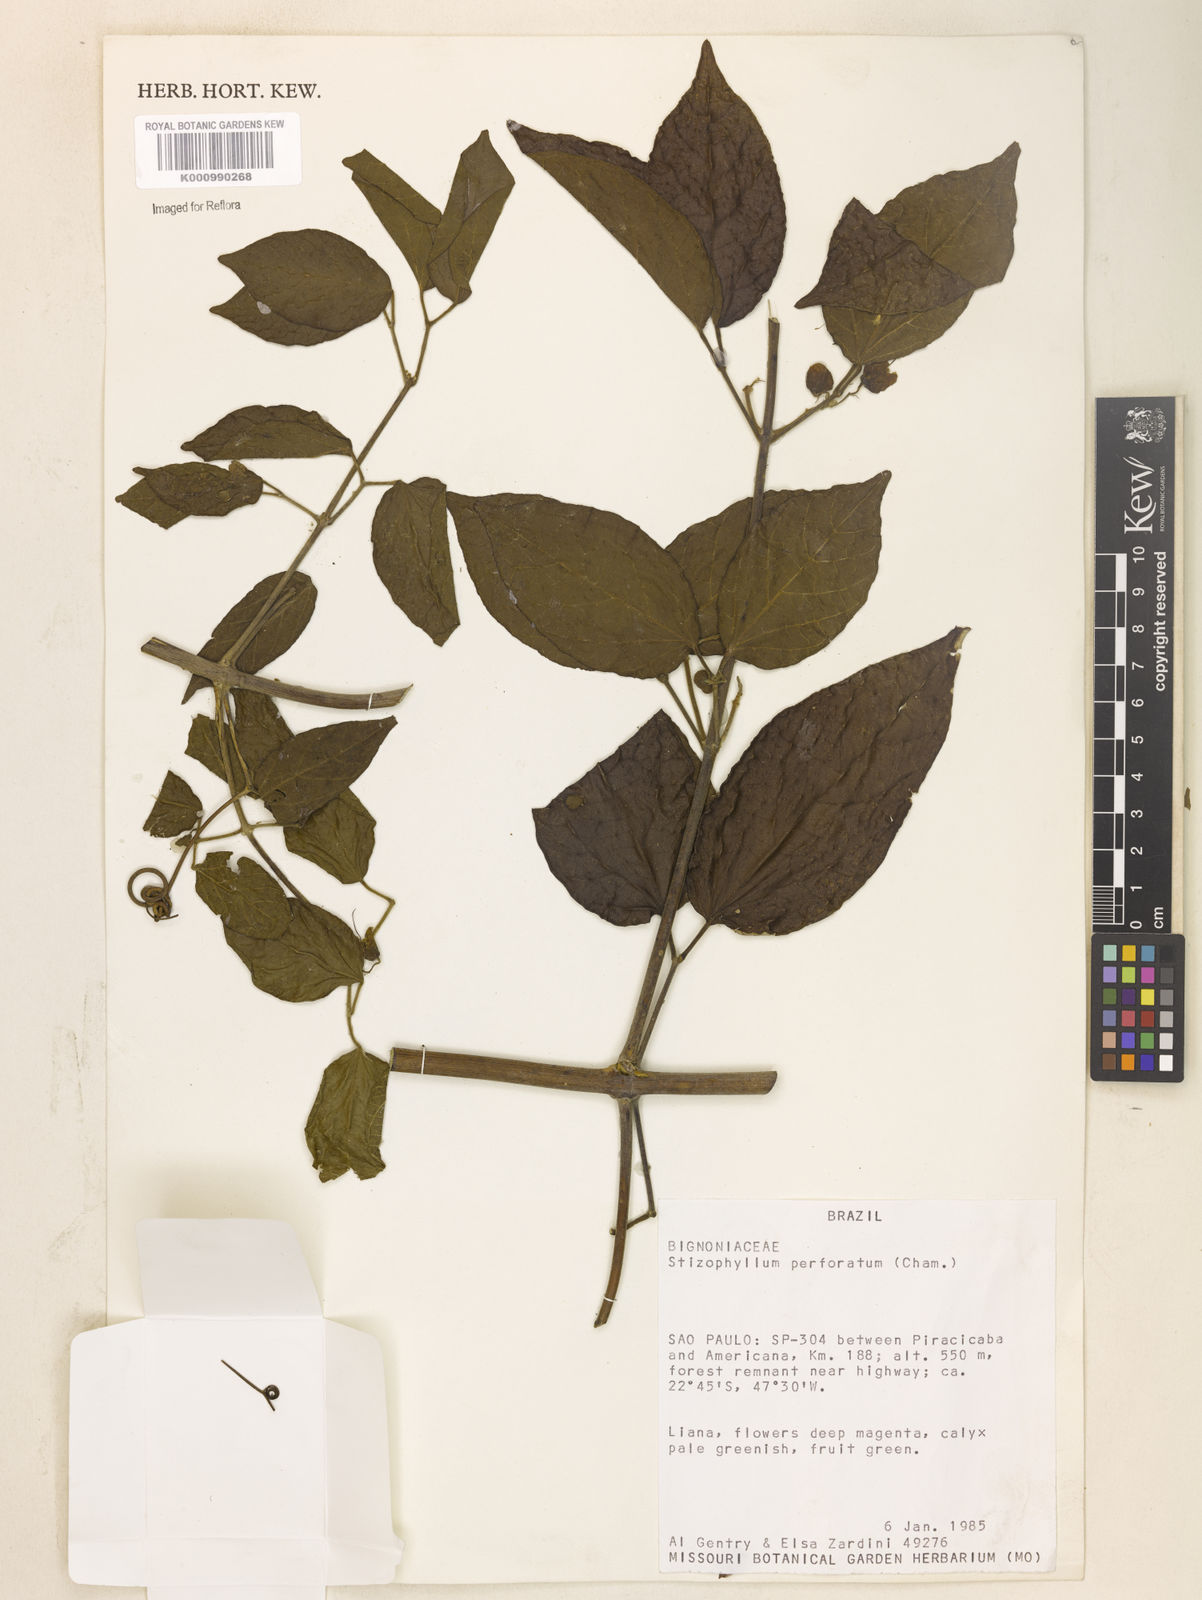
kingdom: Plantae
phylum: Tracheophyta
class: Magnoliopsida
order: Lamiales
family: Bignoniaceae
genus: Stizophyllum
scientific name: Stizophyllum perforatum
